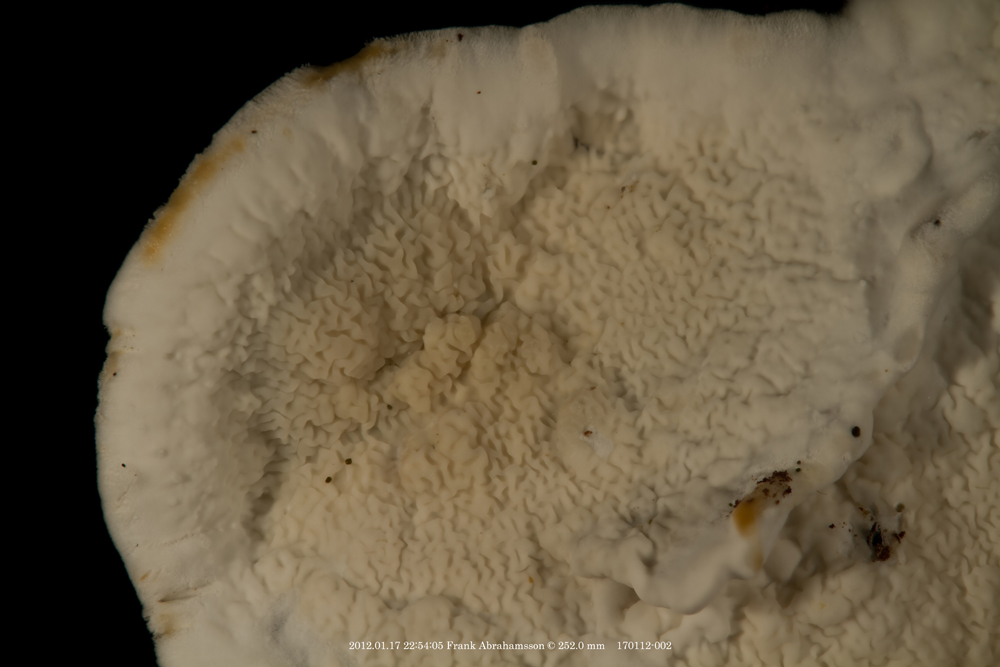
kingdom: Fungi
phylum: Basidiomycota
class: Agaricomycetes
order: Polyporales
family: Irpicaceae
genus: Byssomerulius
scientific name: Byssomerulius corium
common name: læder-åresvamp
